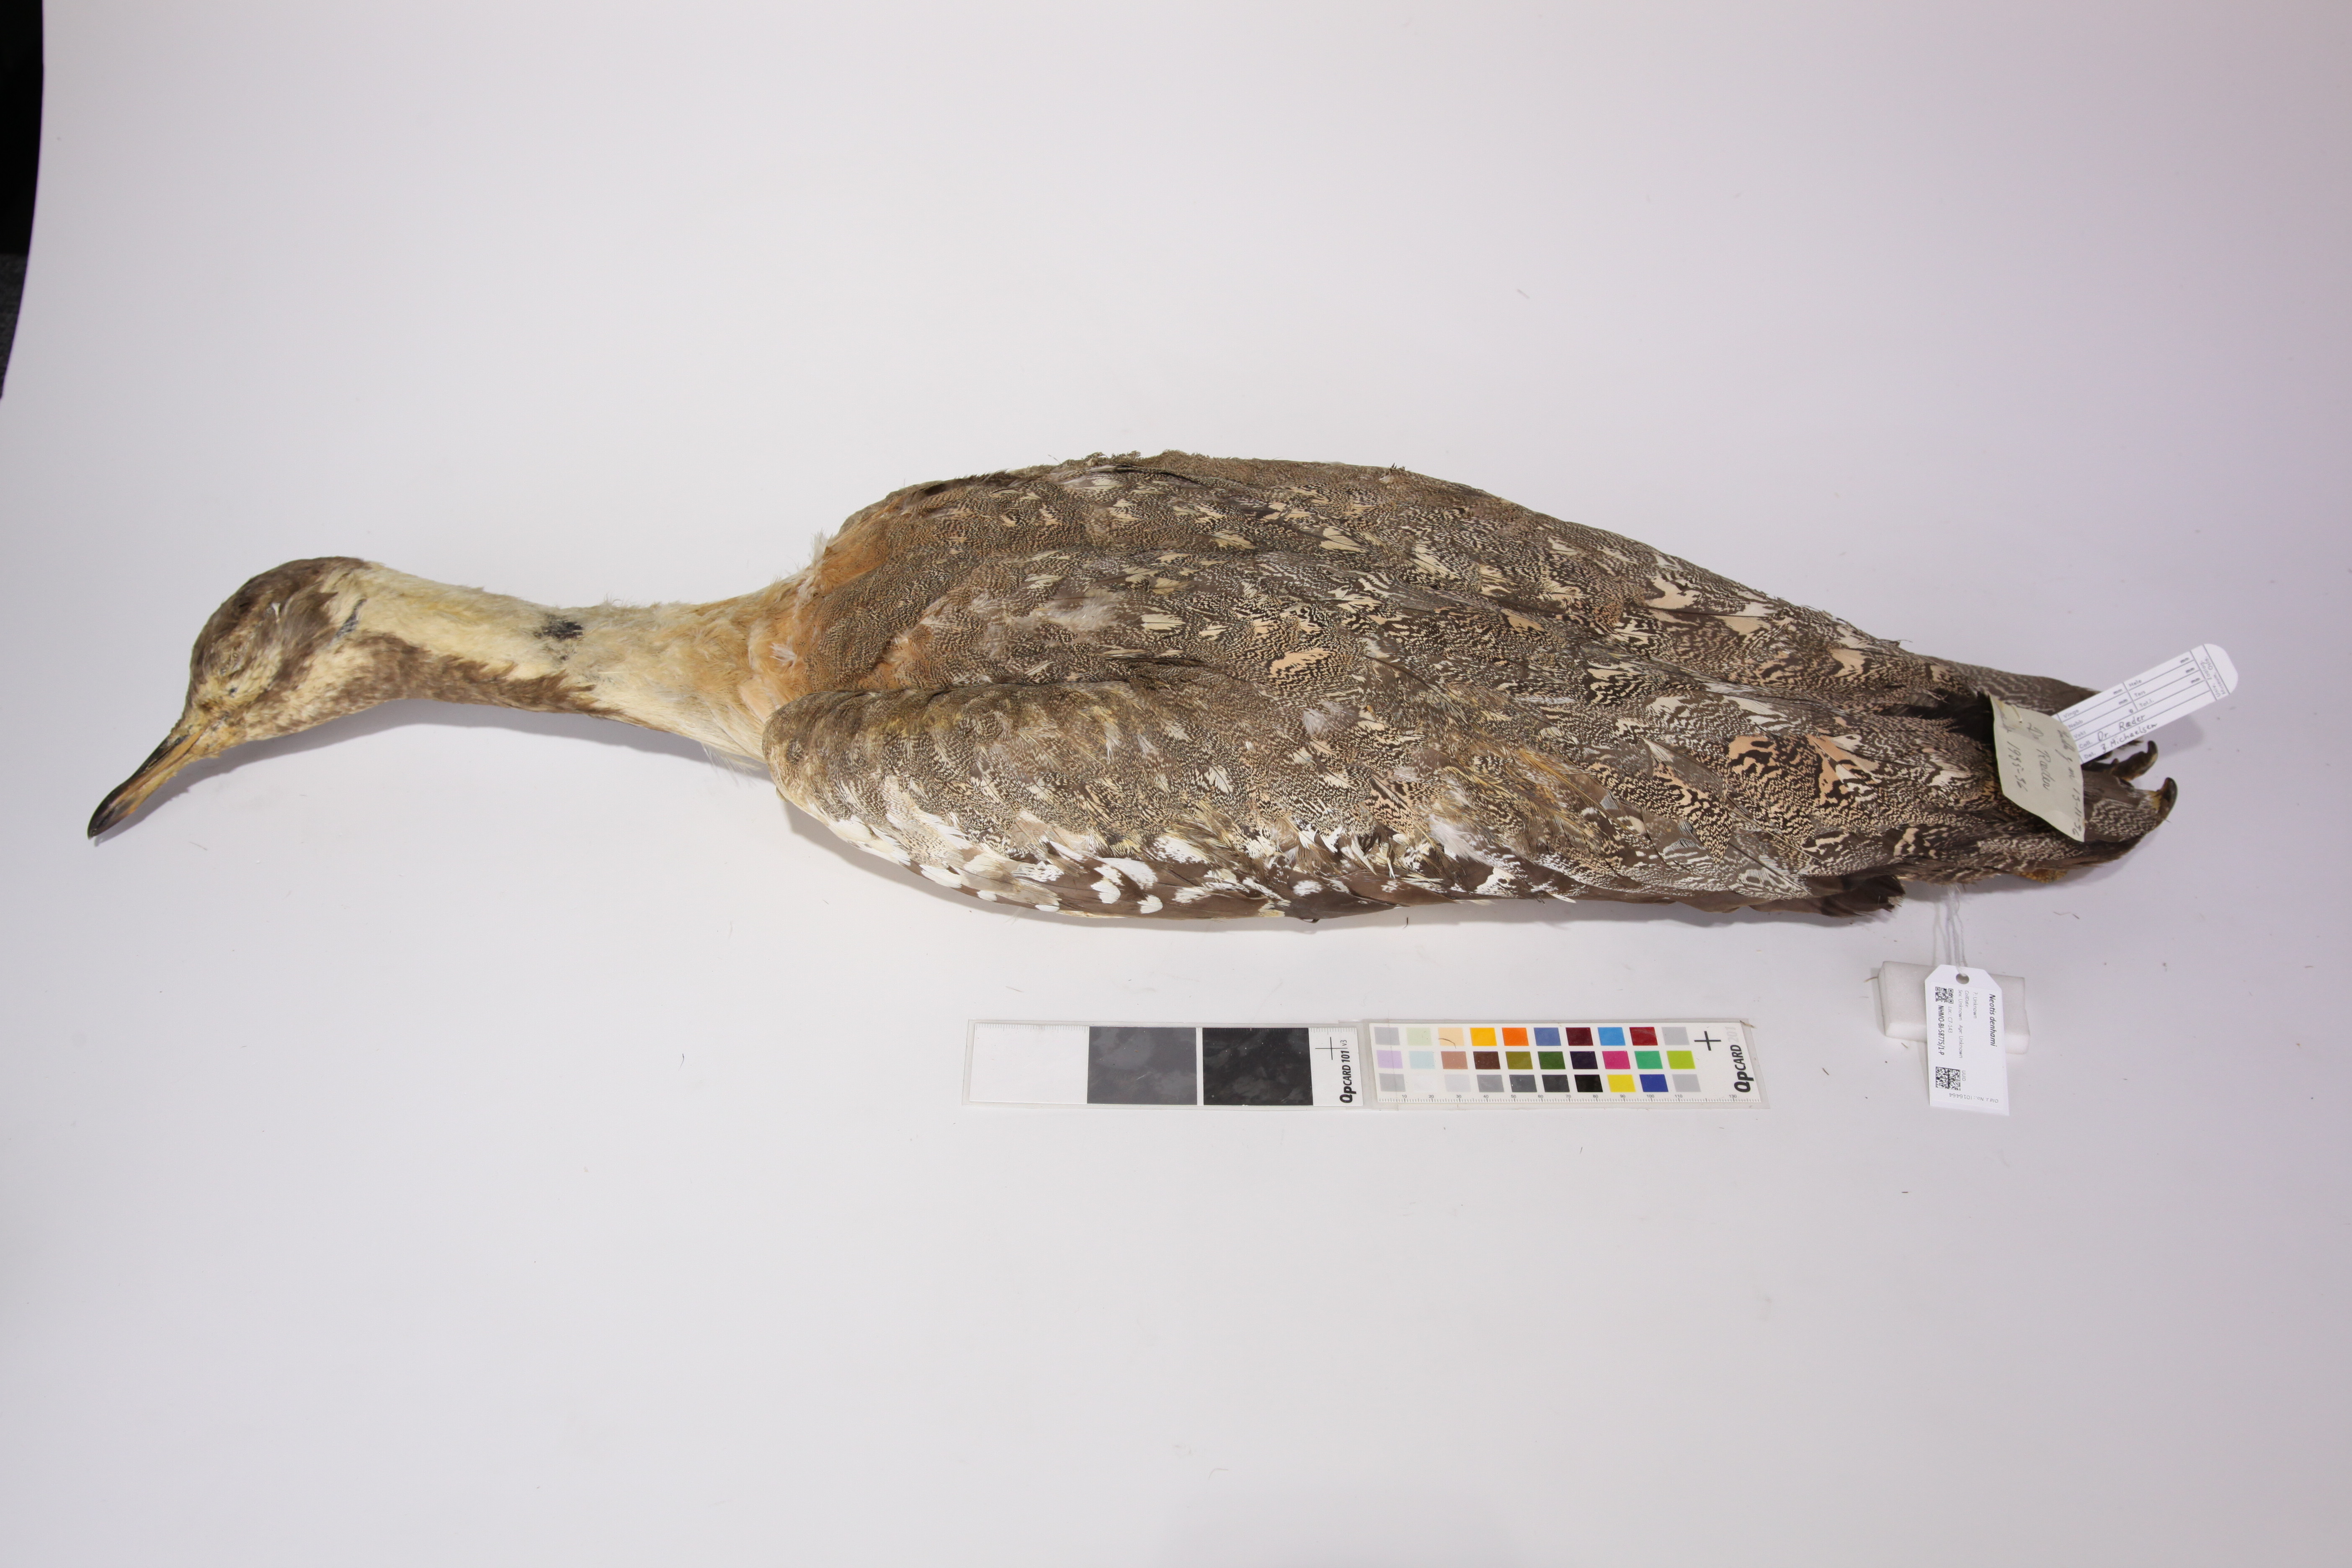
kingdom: Animalia
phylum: Chordata
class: Aves
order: Otidiformes
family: Otididae
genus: Neotis
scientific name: Neotis denhami
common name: Denham's bustard
